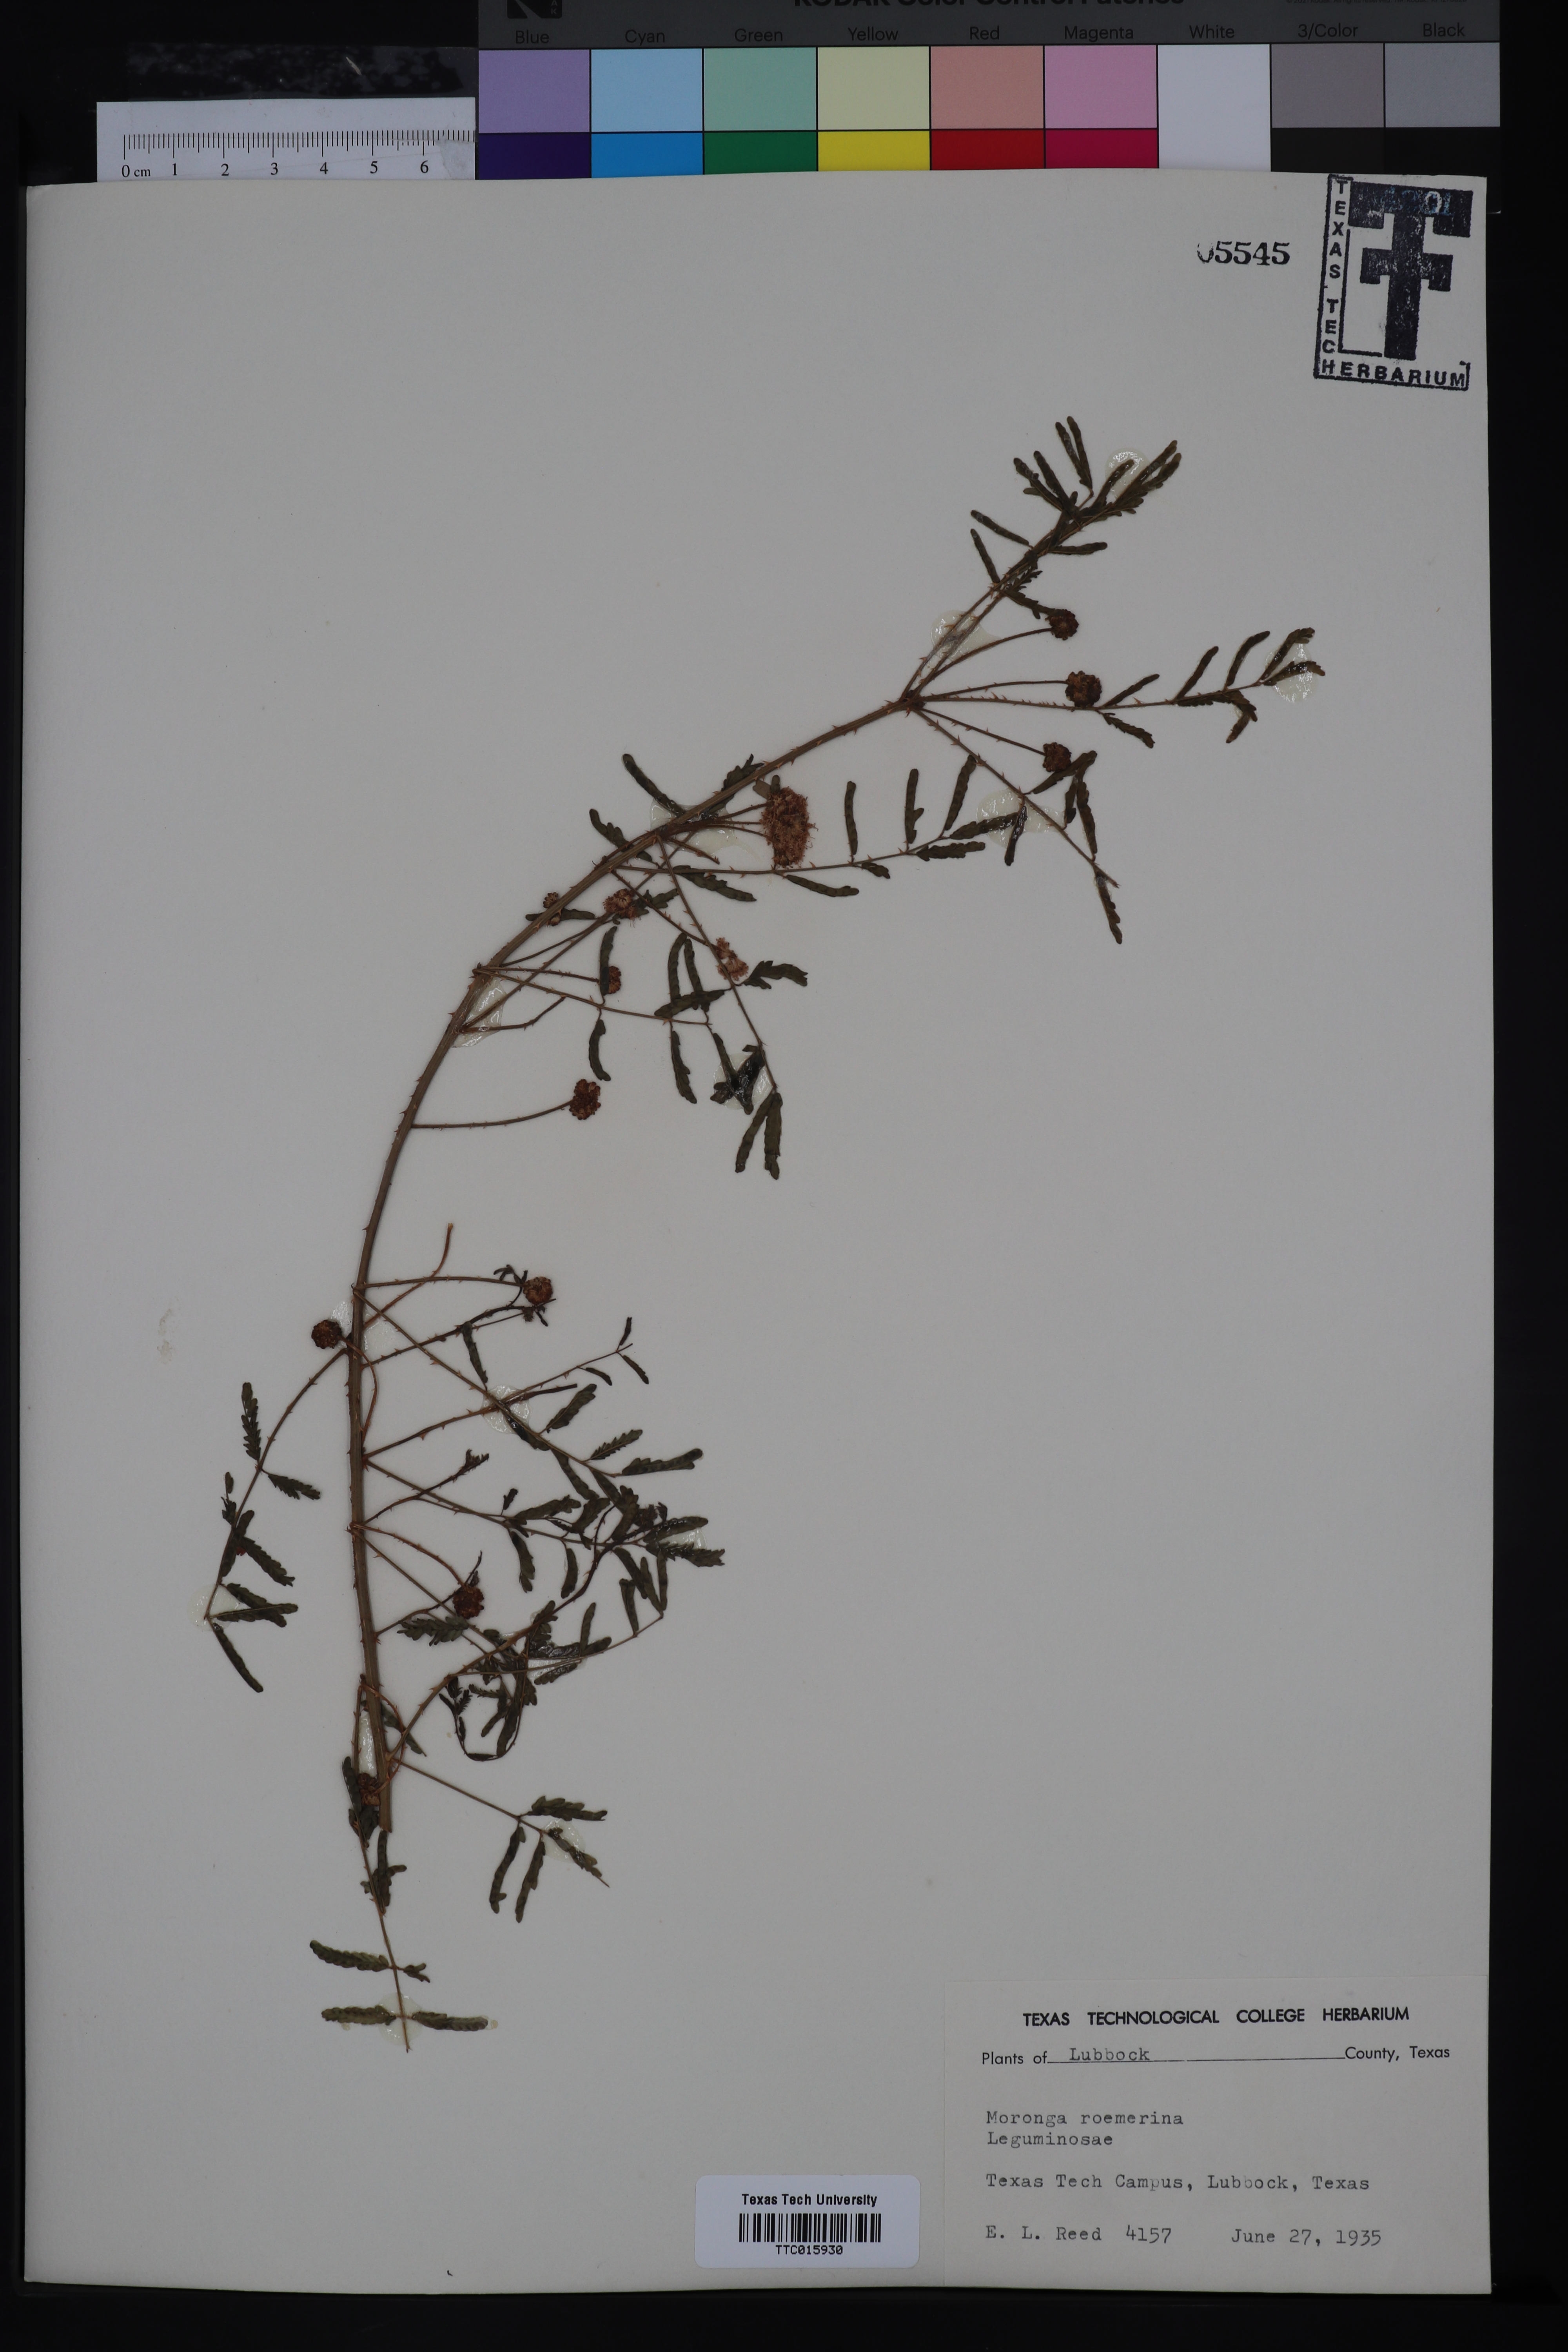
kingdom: Plantae
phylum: Tracheophyta
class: Magnoliopsida
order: Fabales
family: Fabaceae
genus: Mimosa
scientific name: Mimosa quadrivalvis
